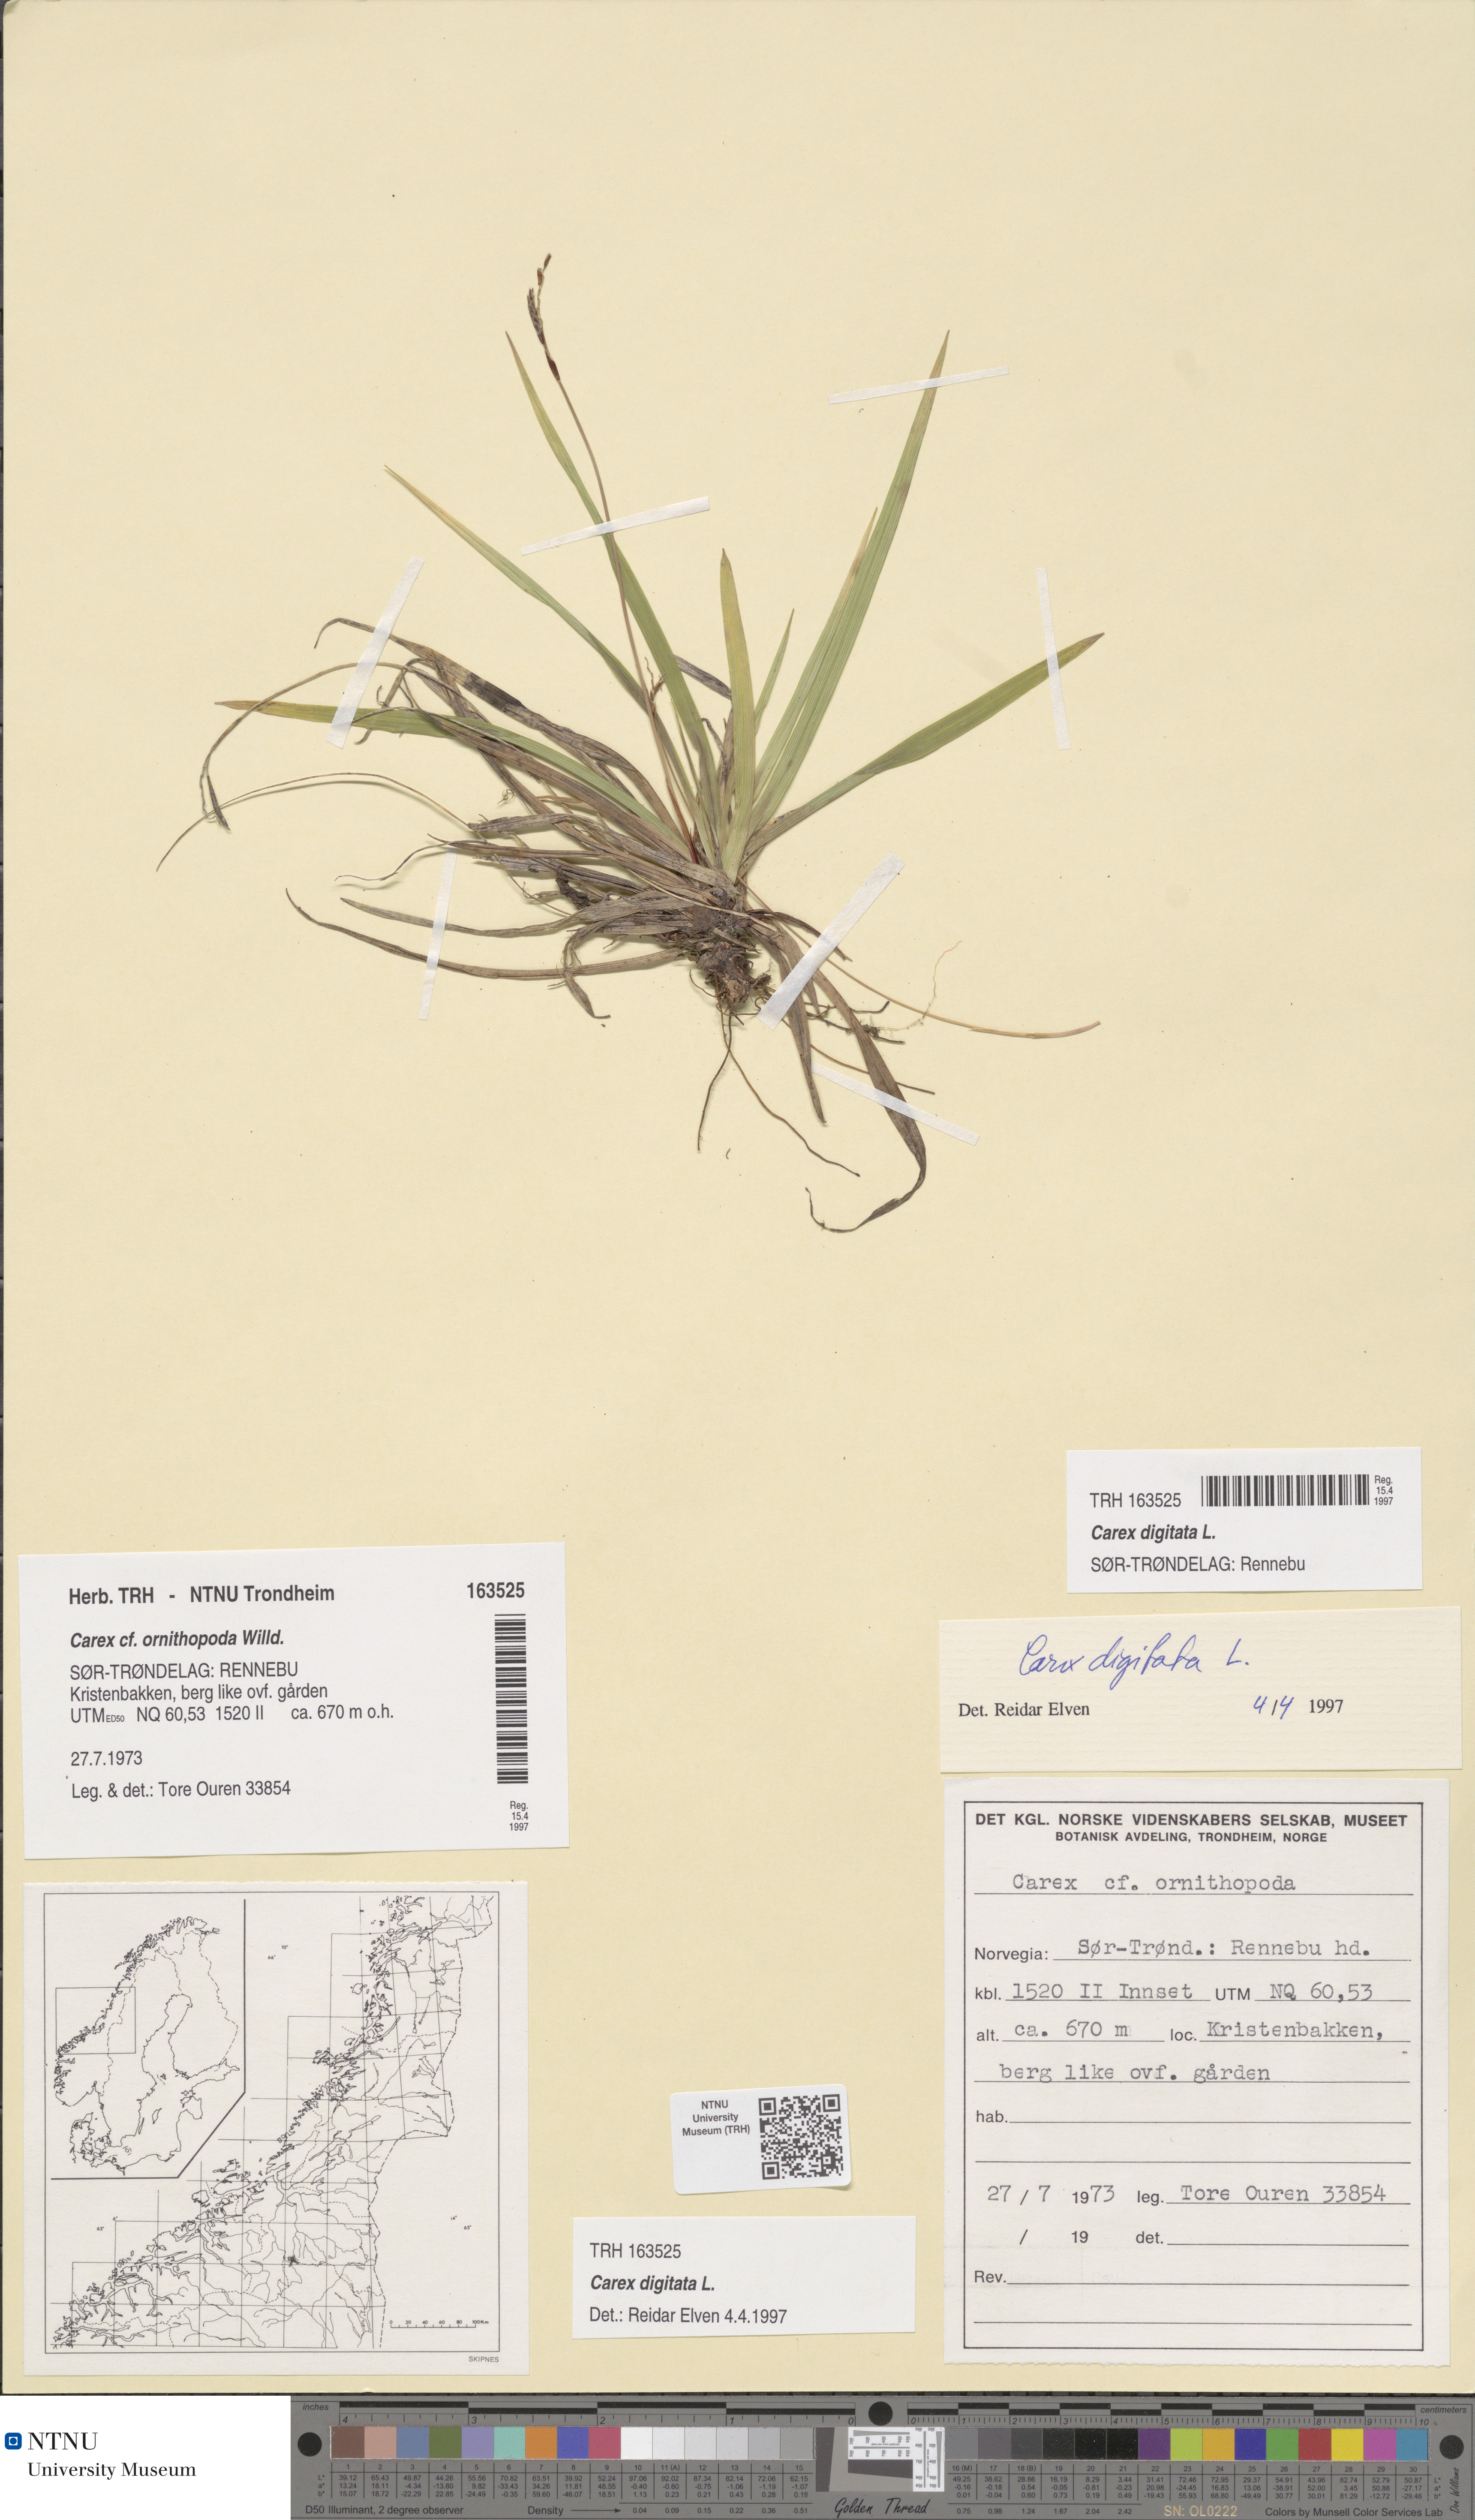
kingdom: Plantae
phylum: Tracheophyta
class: Liliopsida
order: Poales
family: Cyperaceae
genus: Carex
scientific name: Carex digitata
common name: Fingered sedge
